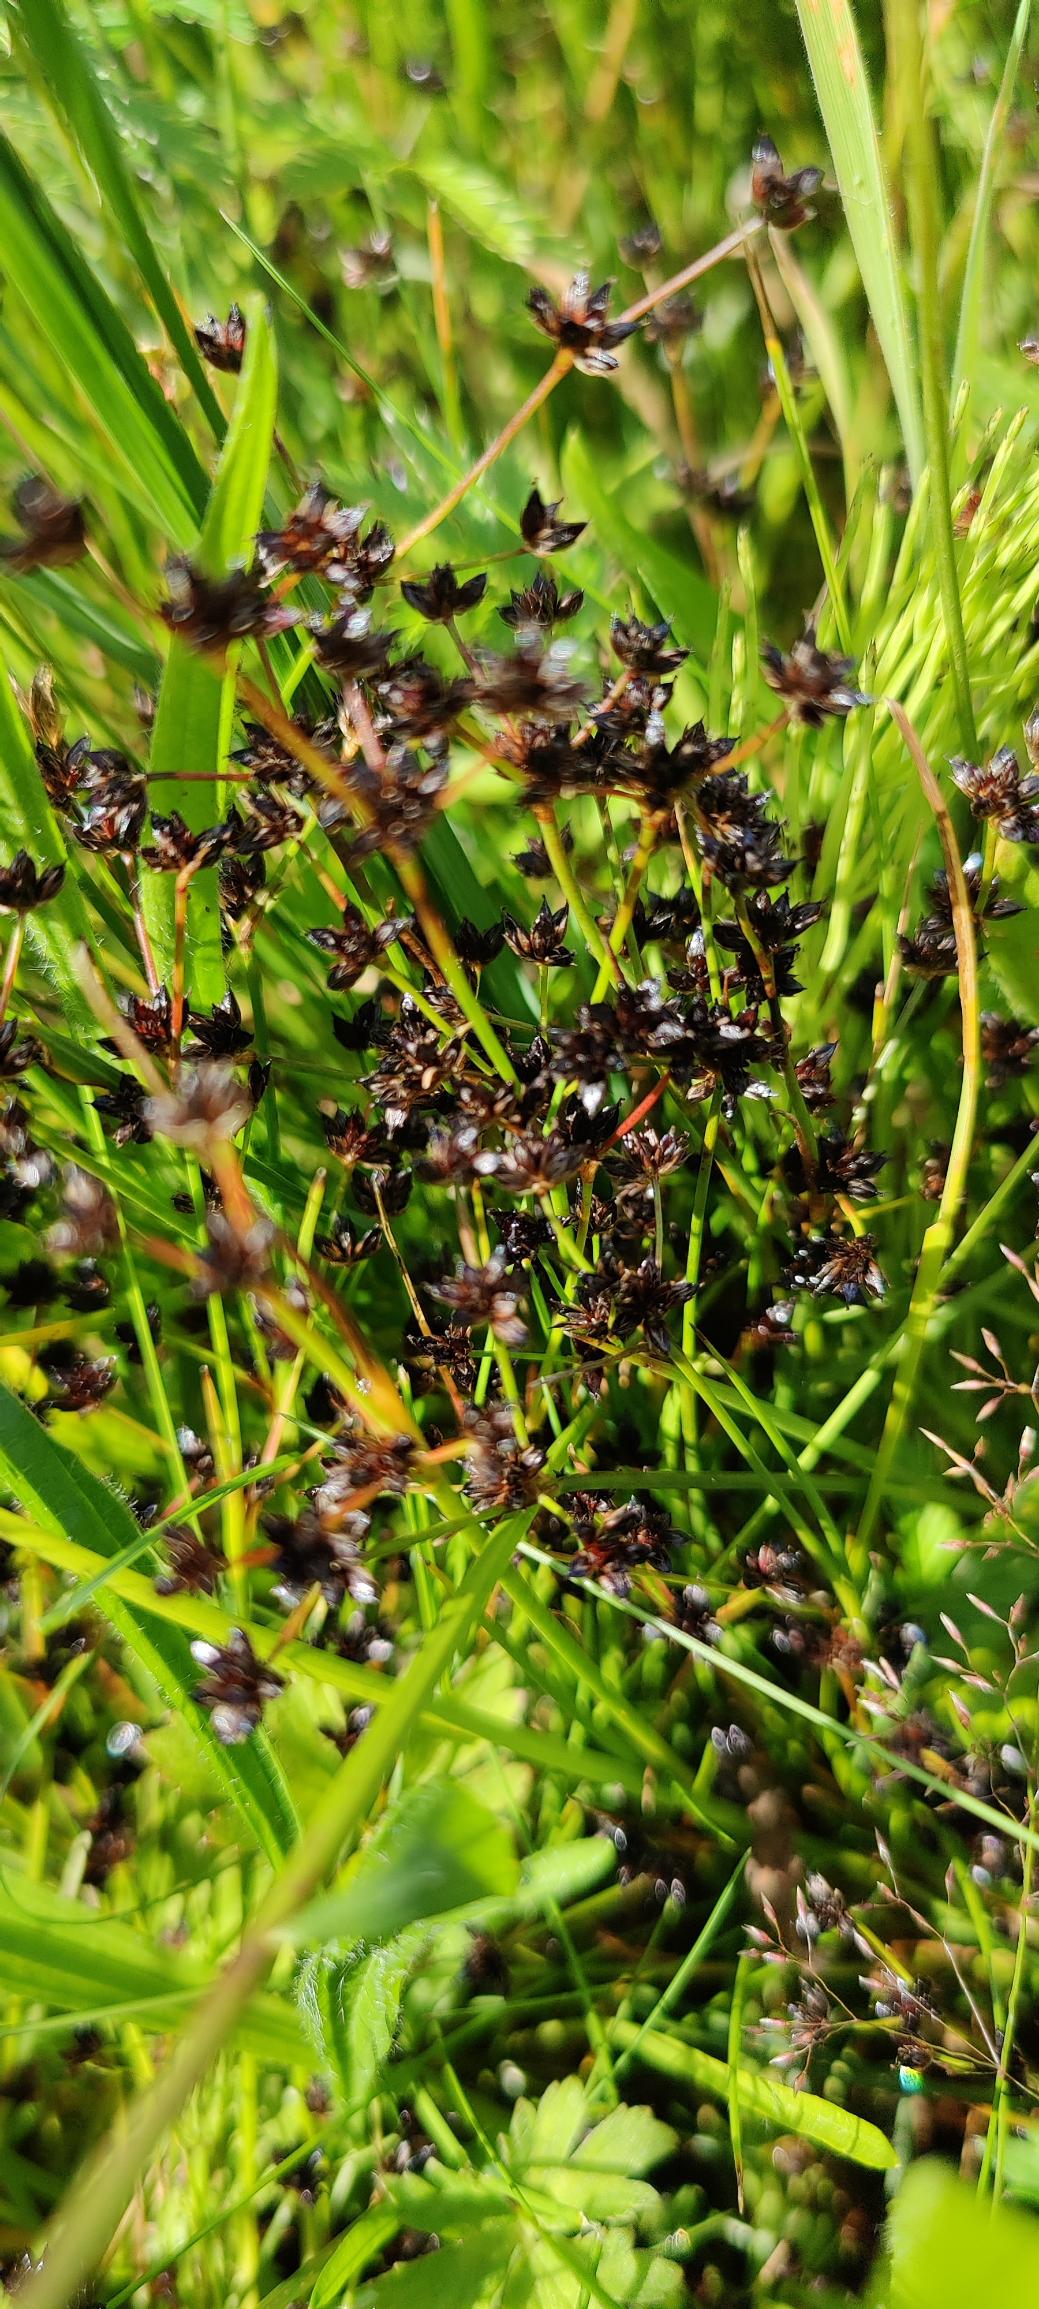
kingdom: Plantae
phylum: Tracheophyta
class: Liliopsida
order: Poales
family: Juncaceae
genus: Juncus
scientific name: Juncus articulatus
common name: Glanskapslet siv
